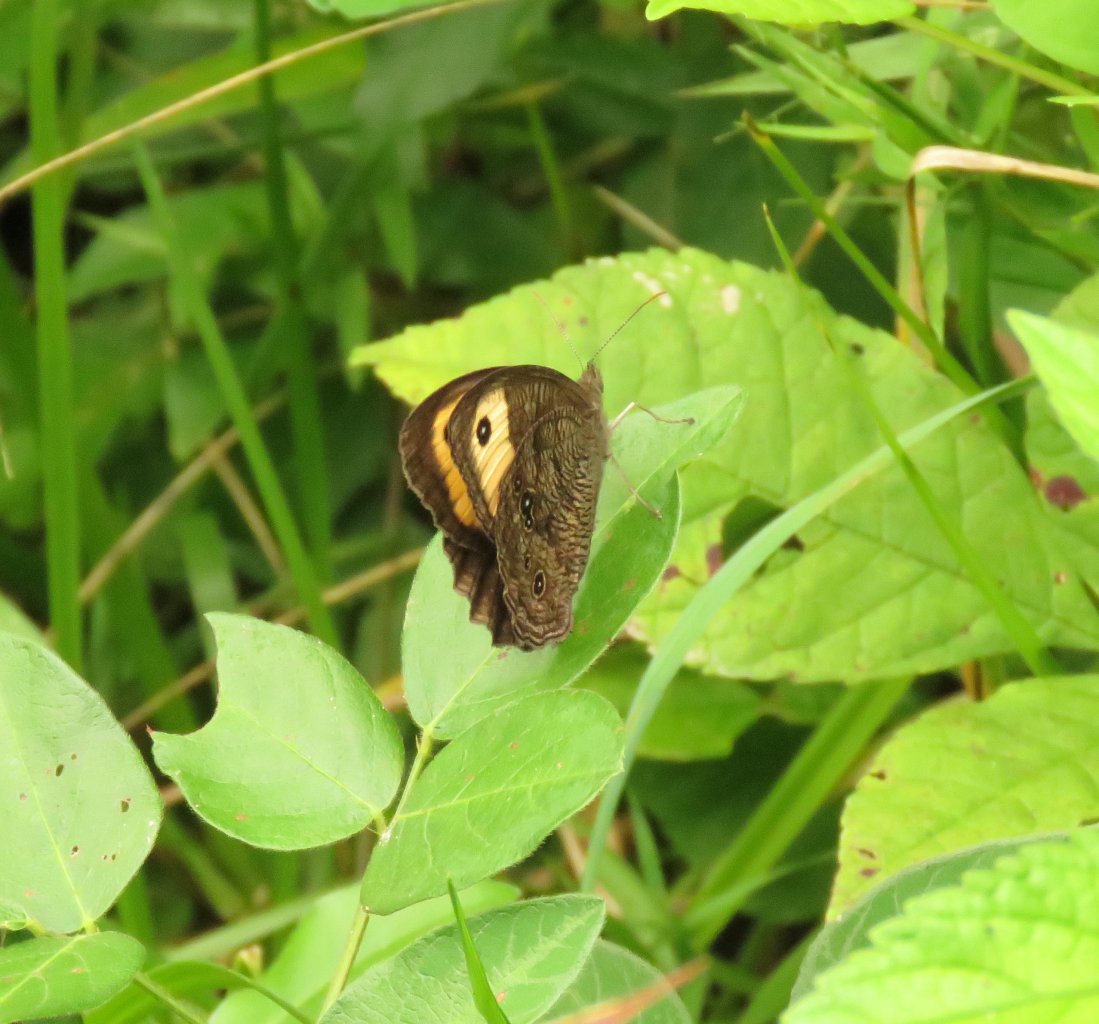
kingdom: Animalia
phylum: Arthropoda
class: Insecta
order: Lepidoptera
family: Nymphalidae
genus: Cercyonis
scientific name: Cercyonis pegala
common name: Common Wood-Nymph
